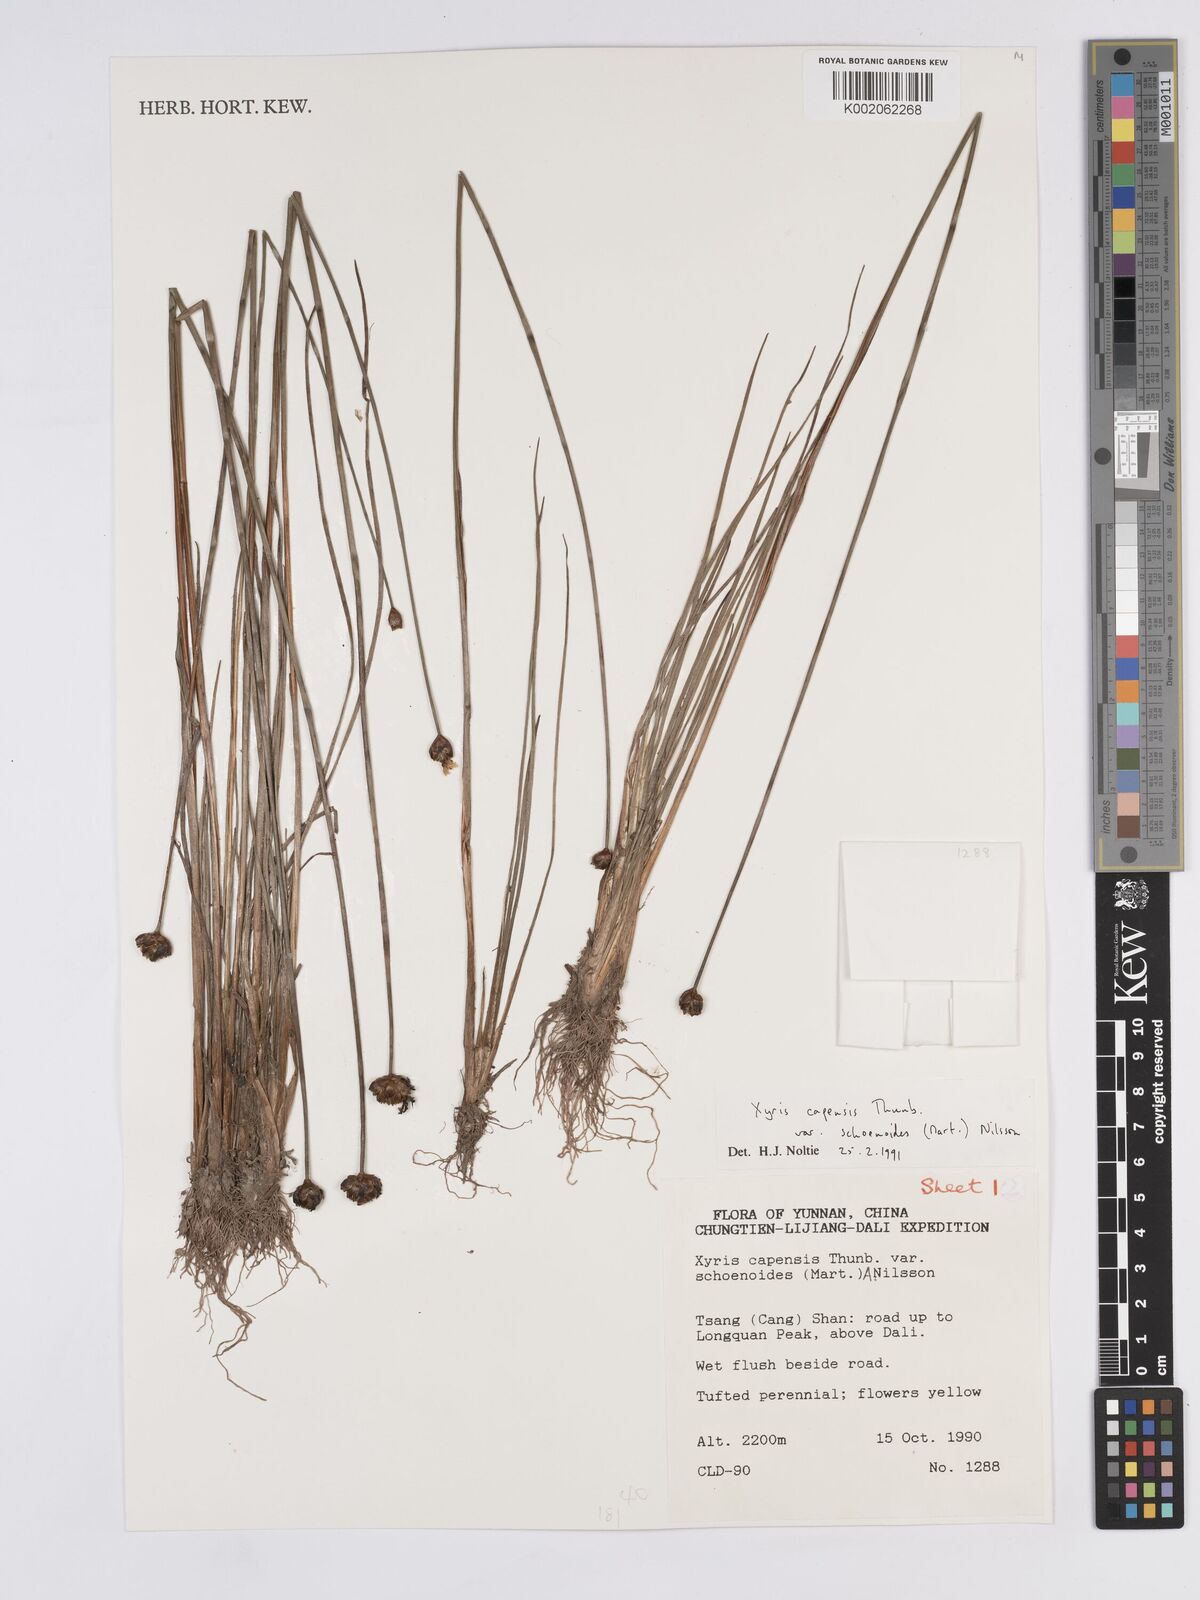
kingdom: Plantae
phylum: Tracheophyta
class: Liliopsida
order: Poales
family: Xyridaceae
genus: Xyris
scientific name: Xyris capensis
